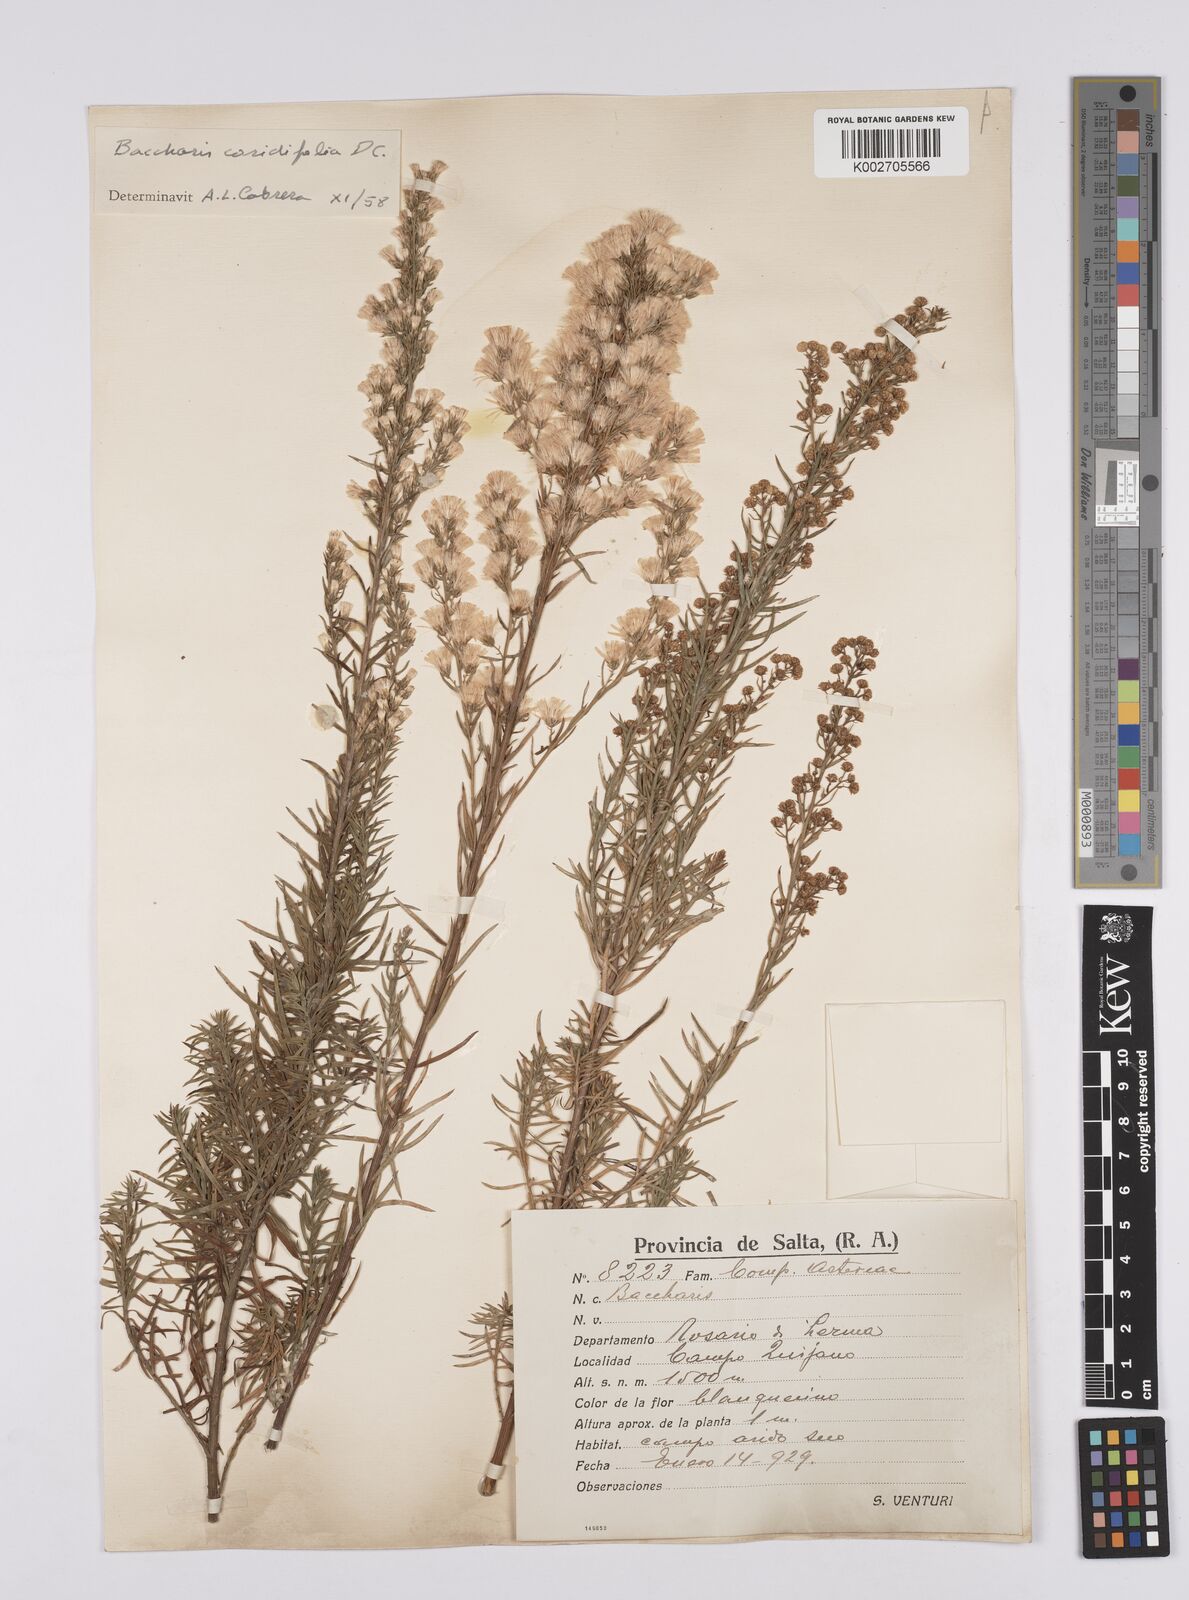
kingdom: Plantae
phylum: Tracheophyta
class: Magnoliopsida
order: Asterales
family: Asteraceae
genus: Baccharis
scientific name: Baccharis salicifolia
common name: Sticky baccharis
